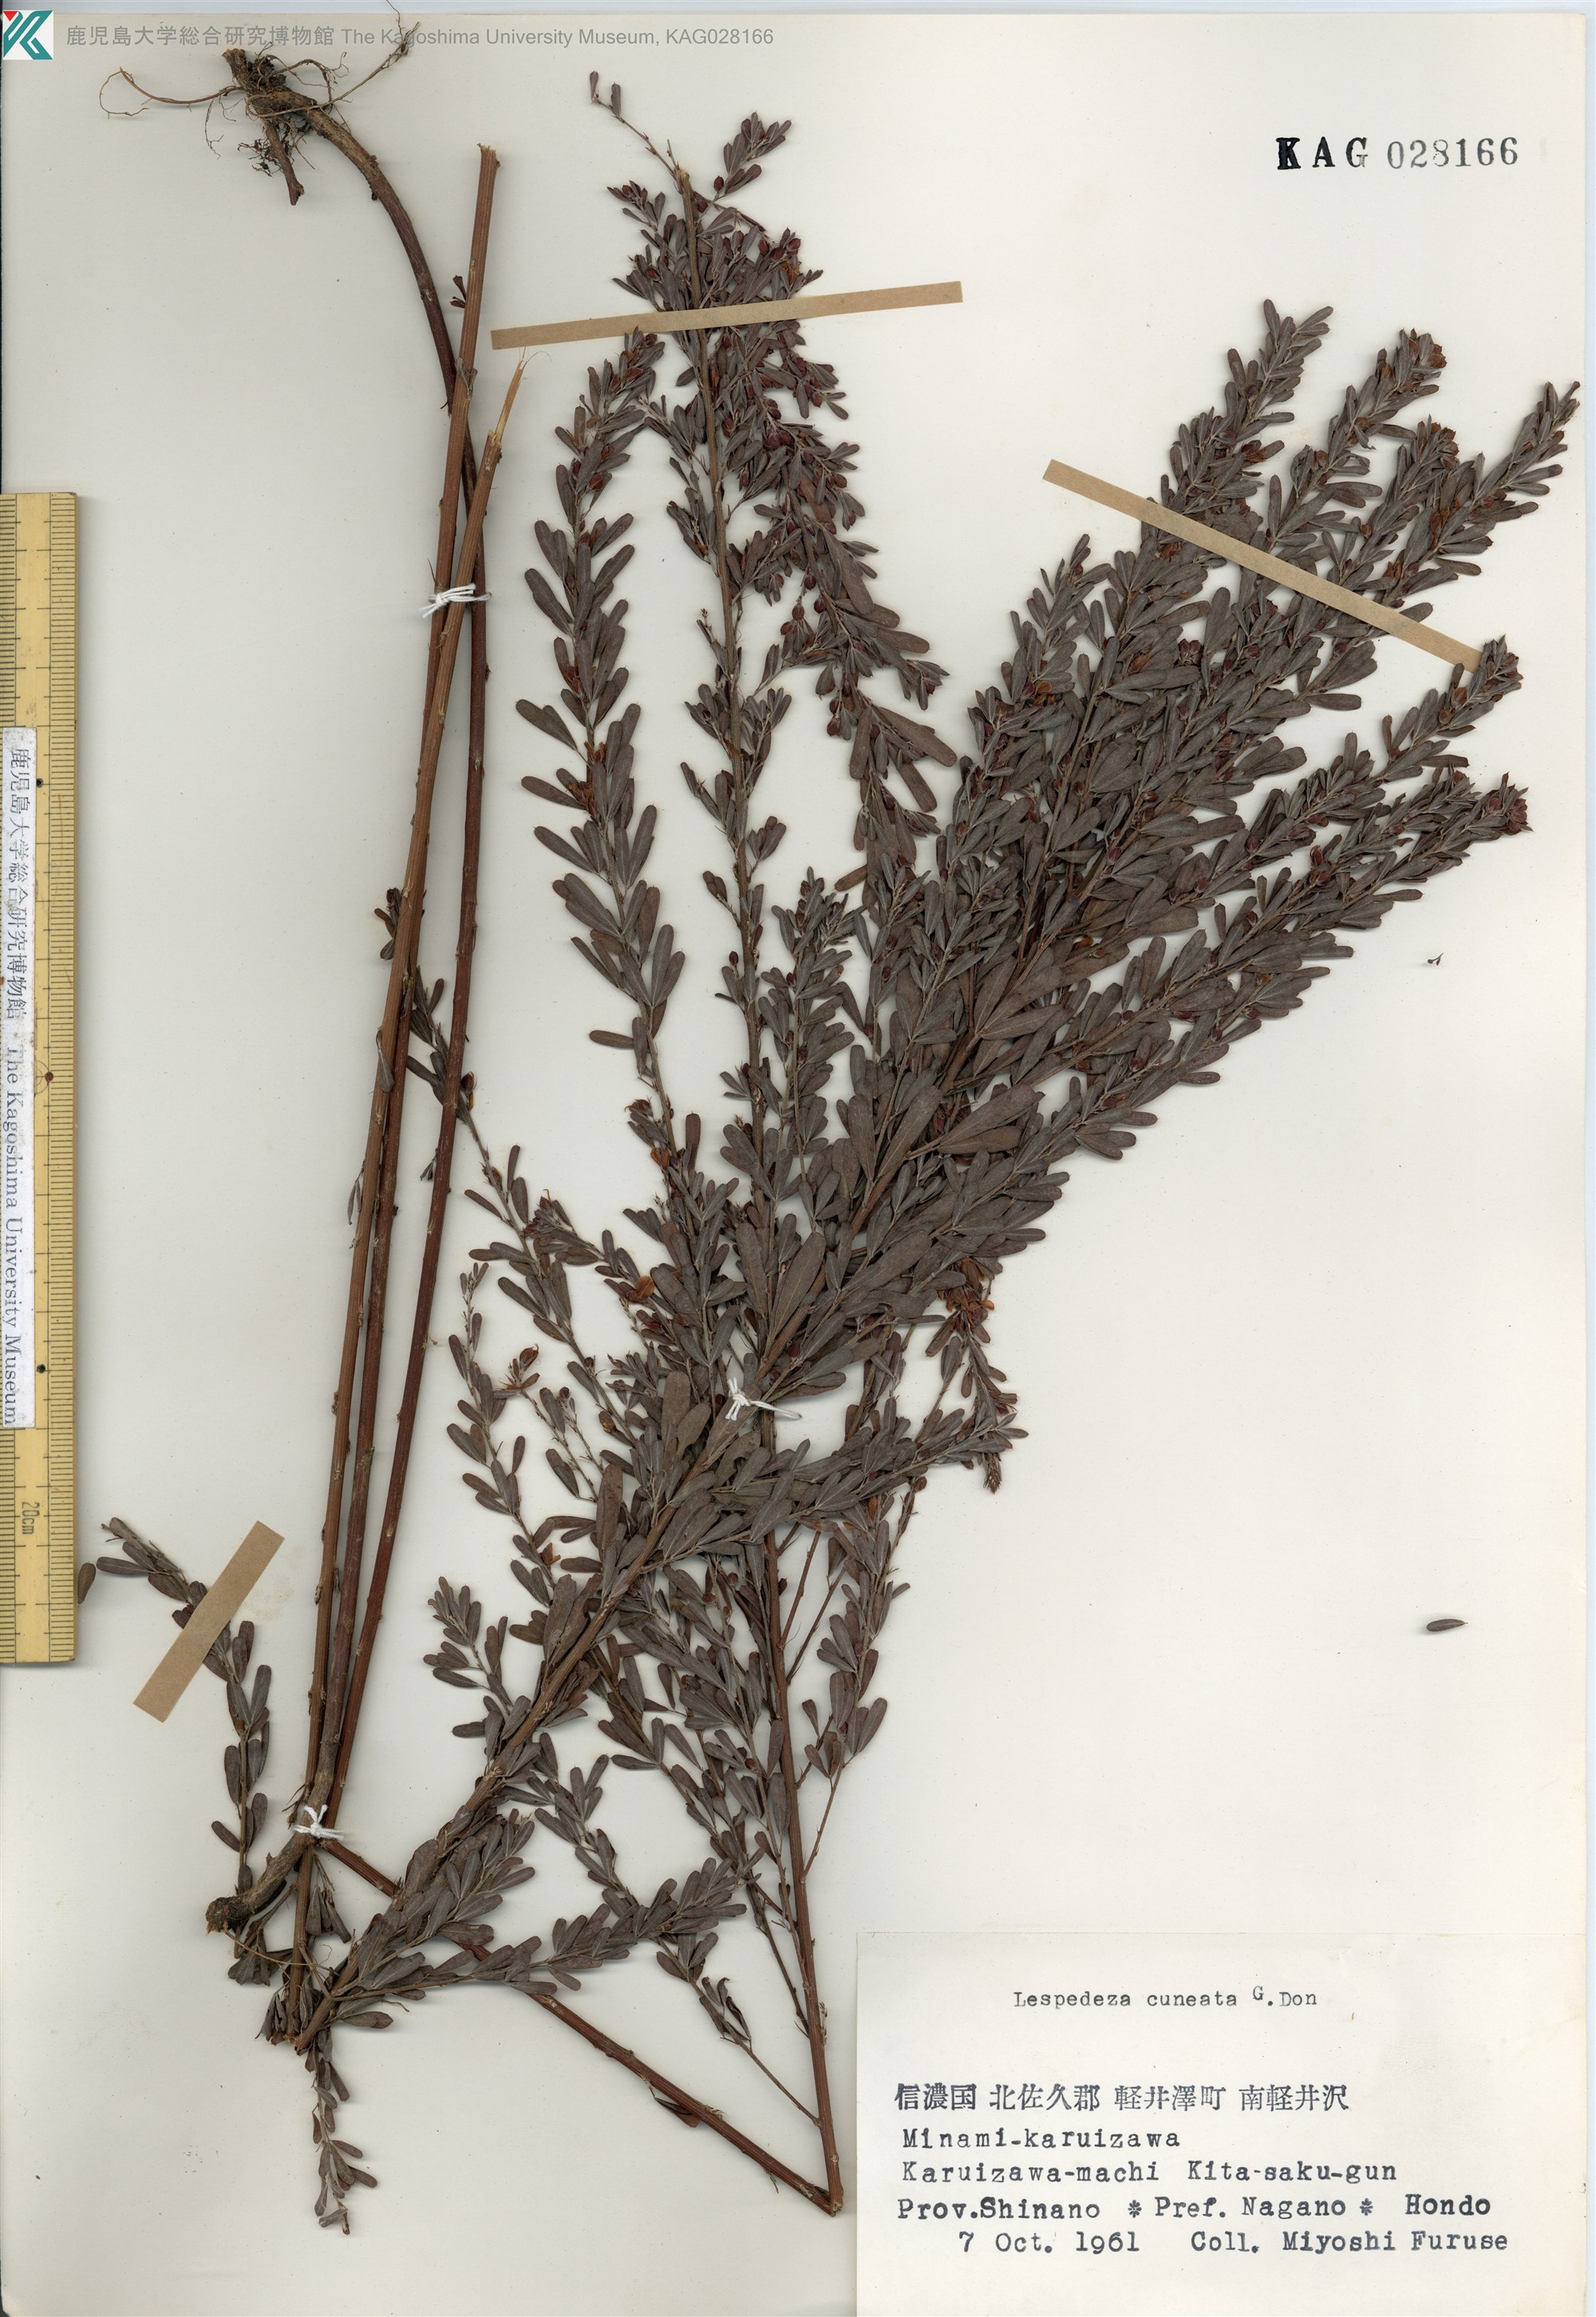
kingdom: Plantae
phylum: Tracheophyta
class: Magnoliopsida
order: Fabales
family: Fabaceae
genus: Lespedeza
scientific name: Lespedeza cuneata
